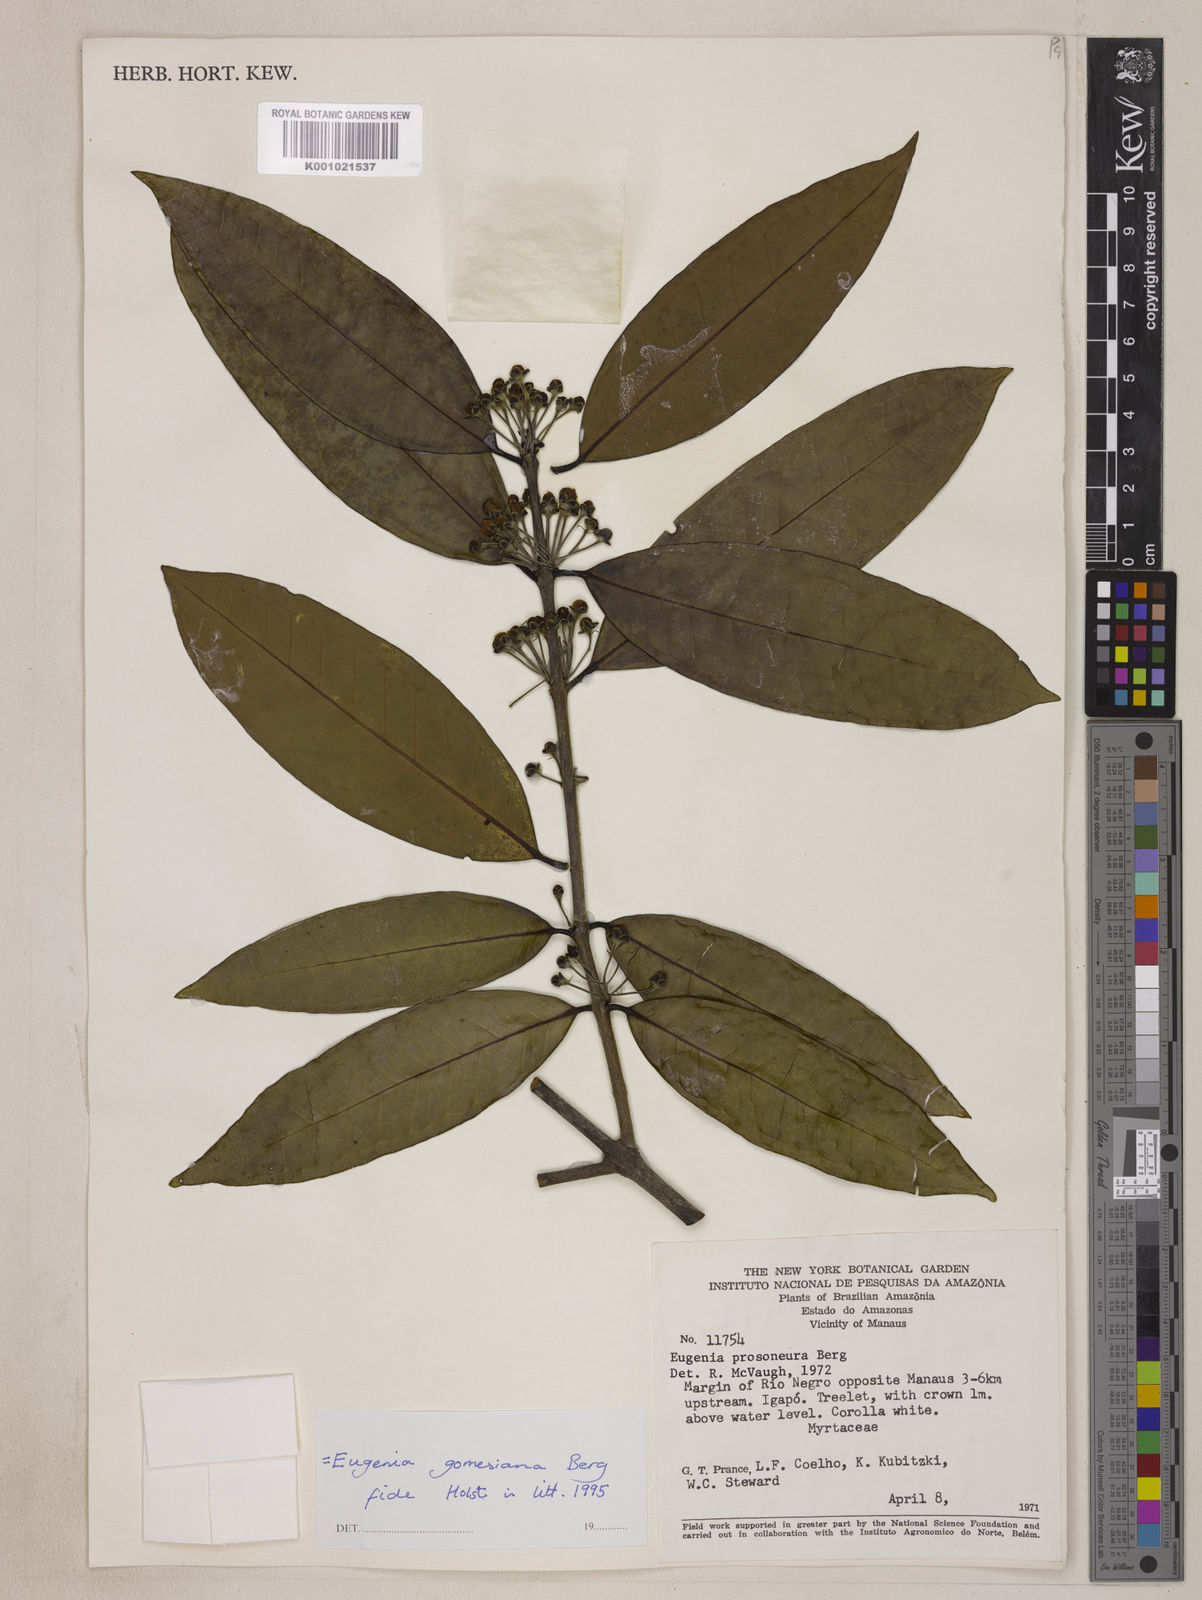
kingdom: Plantae
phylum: Tracheophyta
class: Magnoliopsida
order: Myrtales
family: Myrtaceae
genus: Eugenia
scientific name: Eugenia gomesiana
